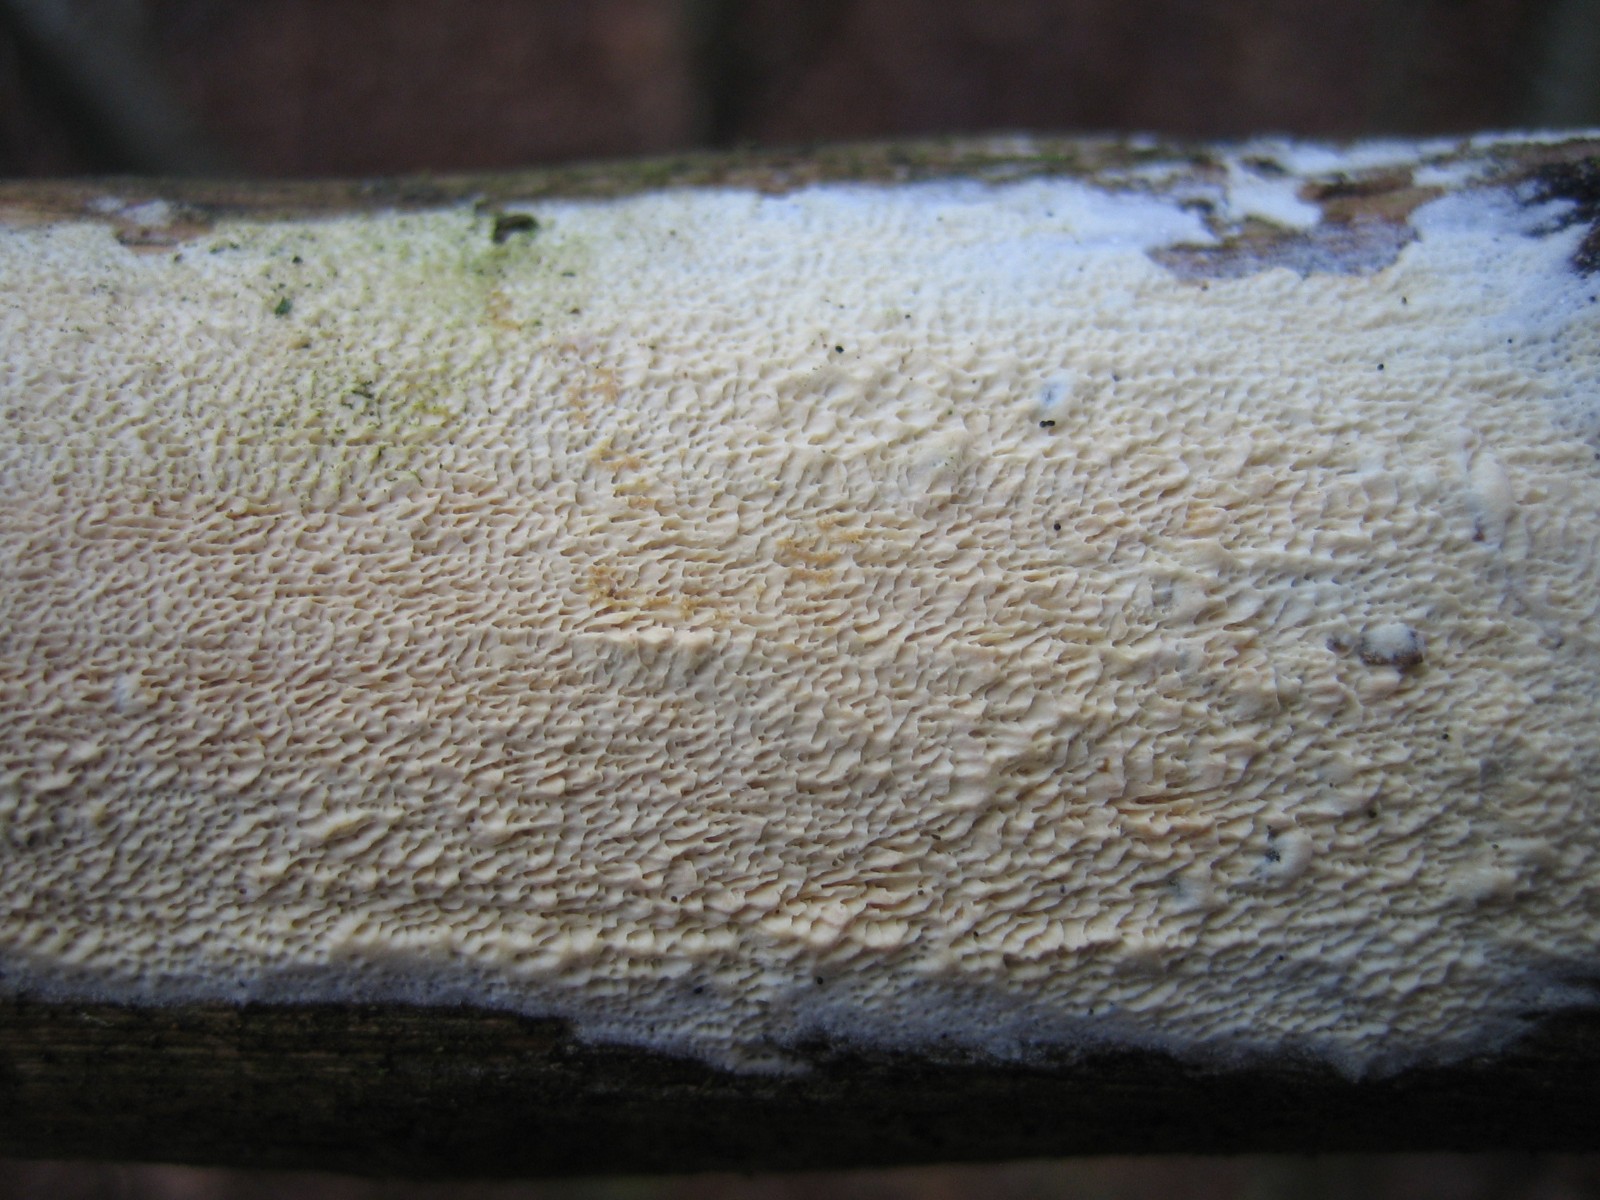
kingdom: Fungi
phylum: Basidiomycota
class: Agaricomycetes
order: Polyporales
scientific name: Polyporales
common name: poresvampordenen
